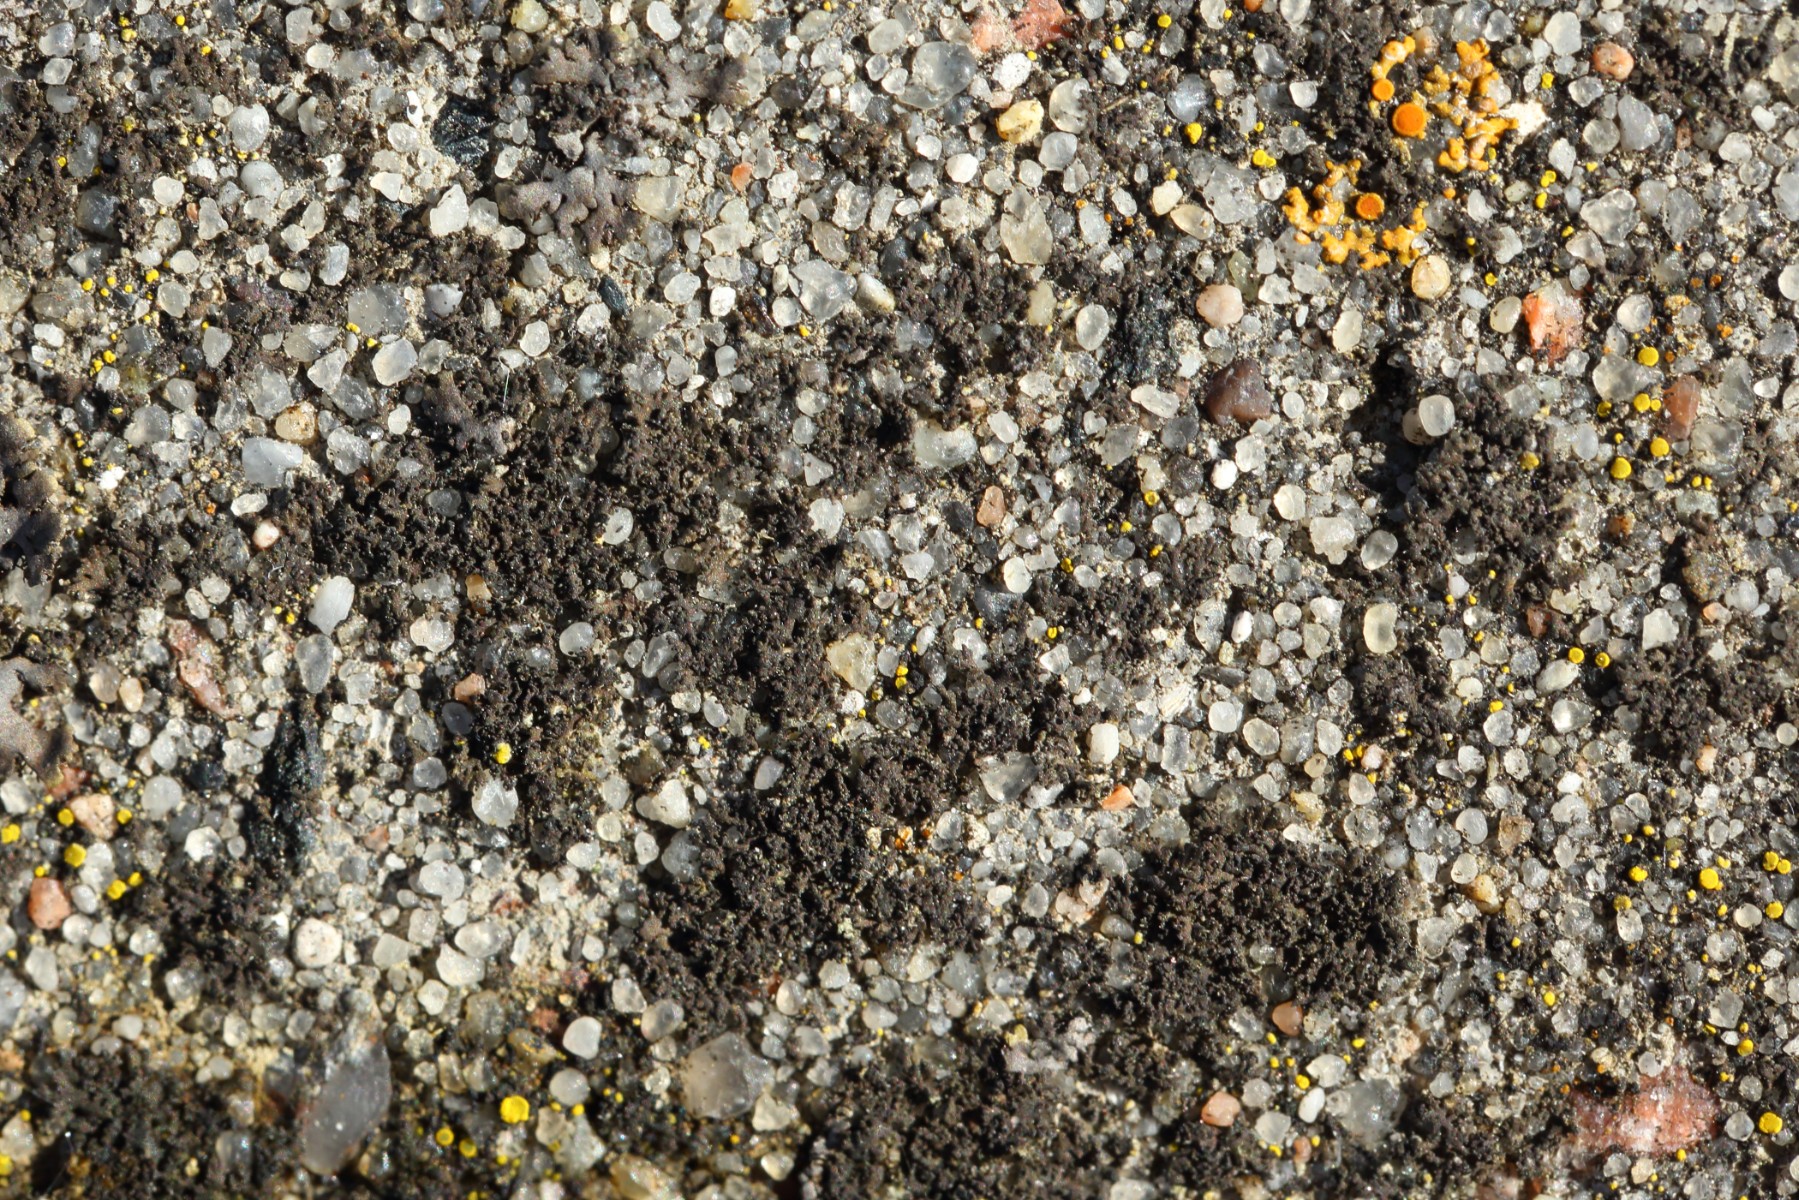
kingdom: Fungi
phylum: Ascomycota
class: Lecanoromycetes
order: Caliciales
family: Physciaceae
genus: Physciella
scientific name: Physciella nigricans
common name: sortagtig rosetlav
